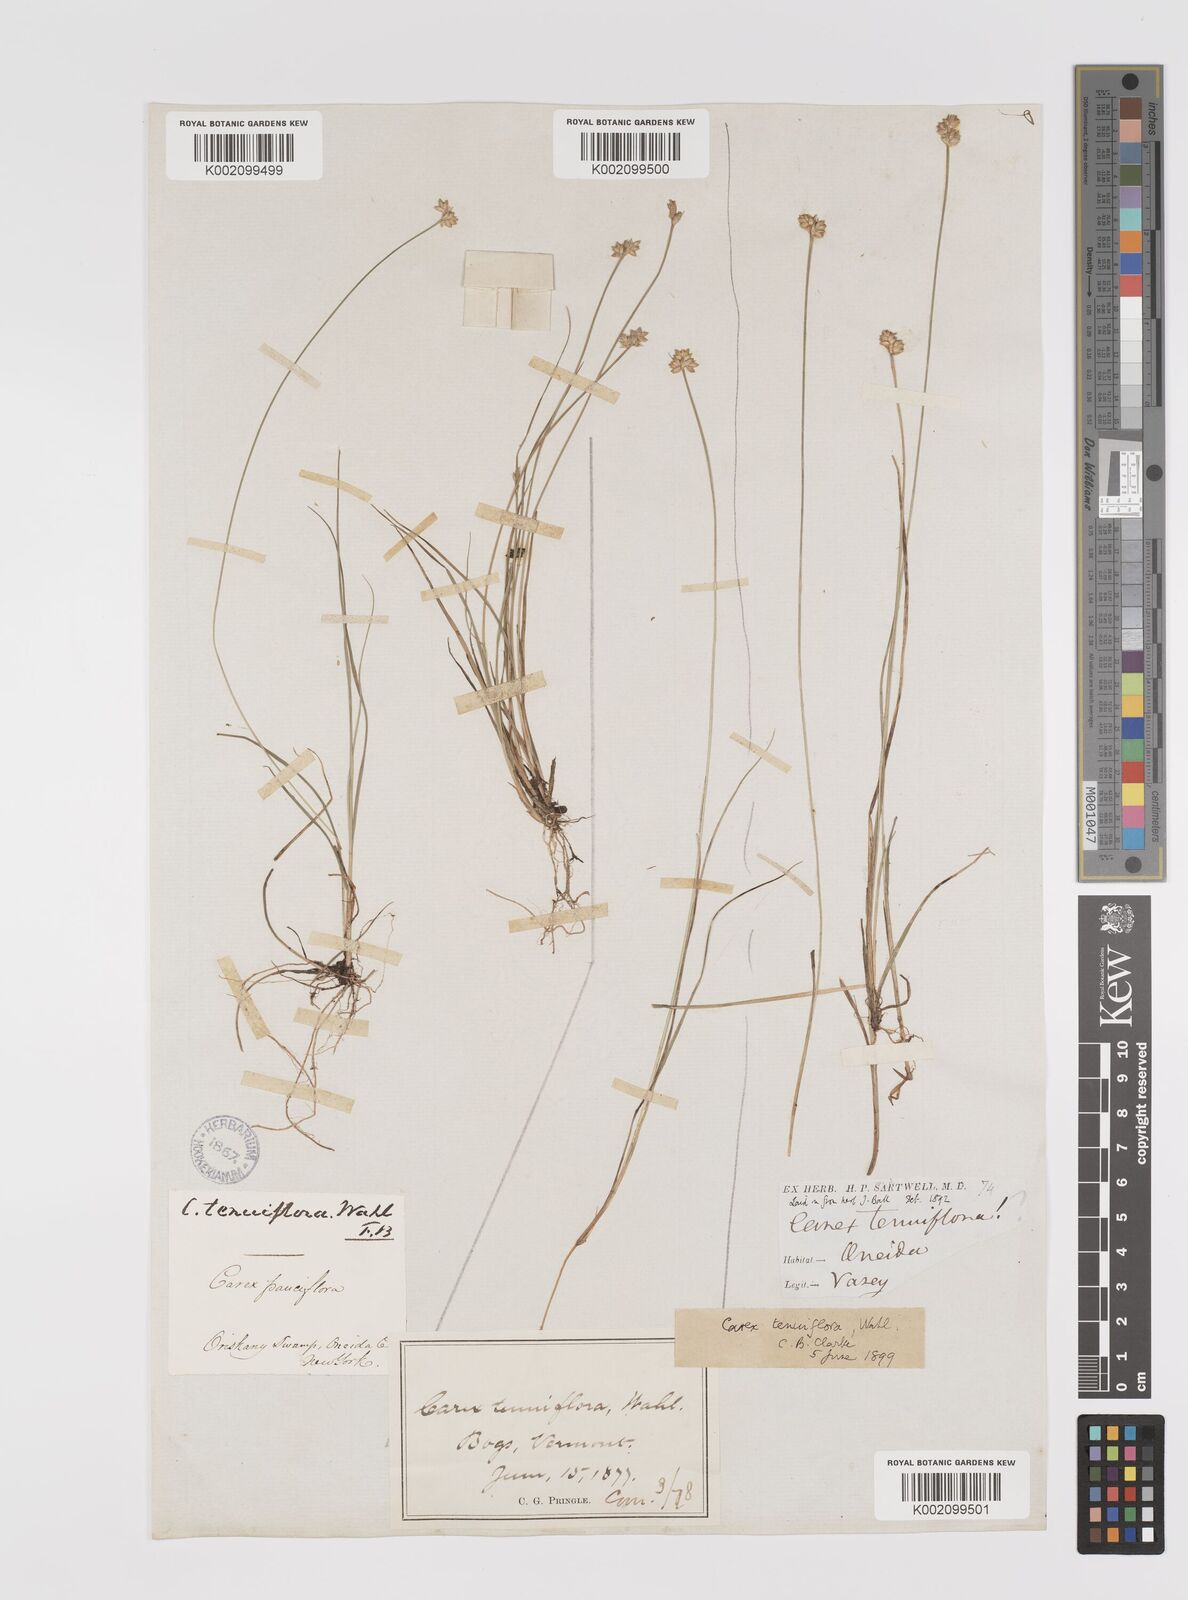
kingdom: Plantae
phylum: Tracheophyta
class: Liliopsida
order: Poales
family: Cyperaceae
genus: Carex
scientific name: Carex tenuiflora
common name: Sparse-flowered sedge
